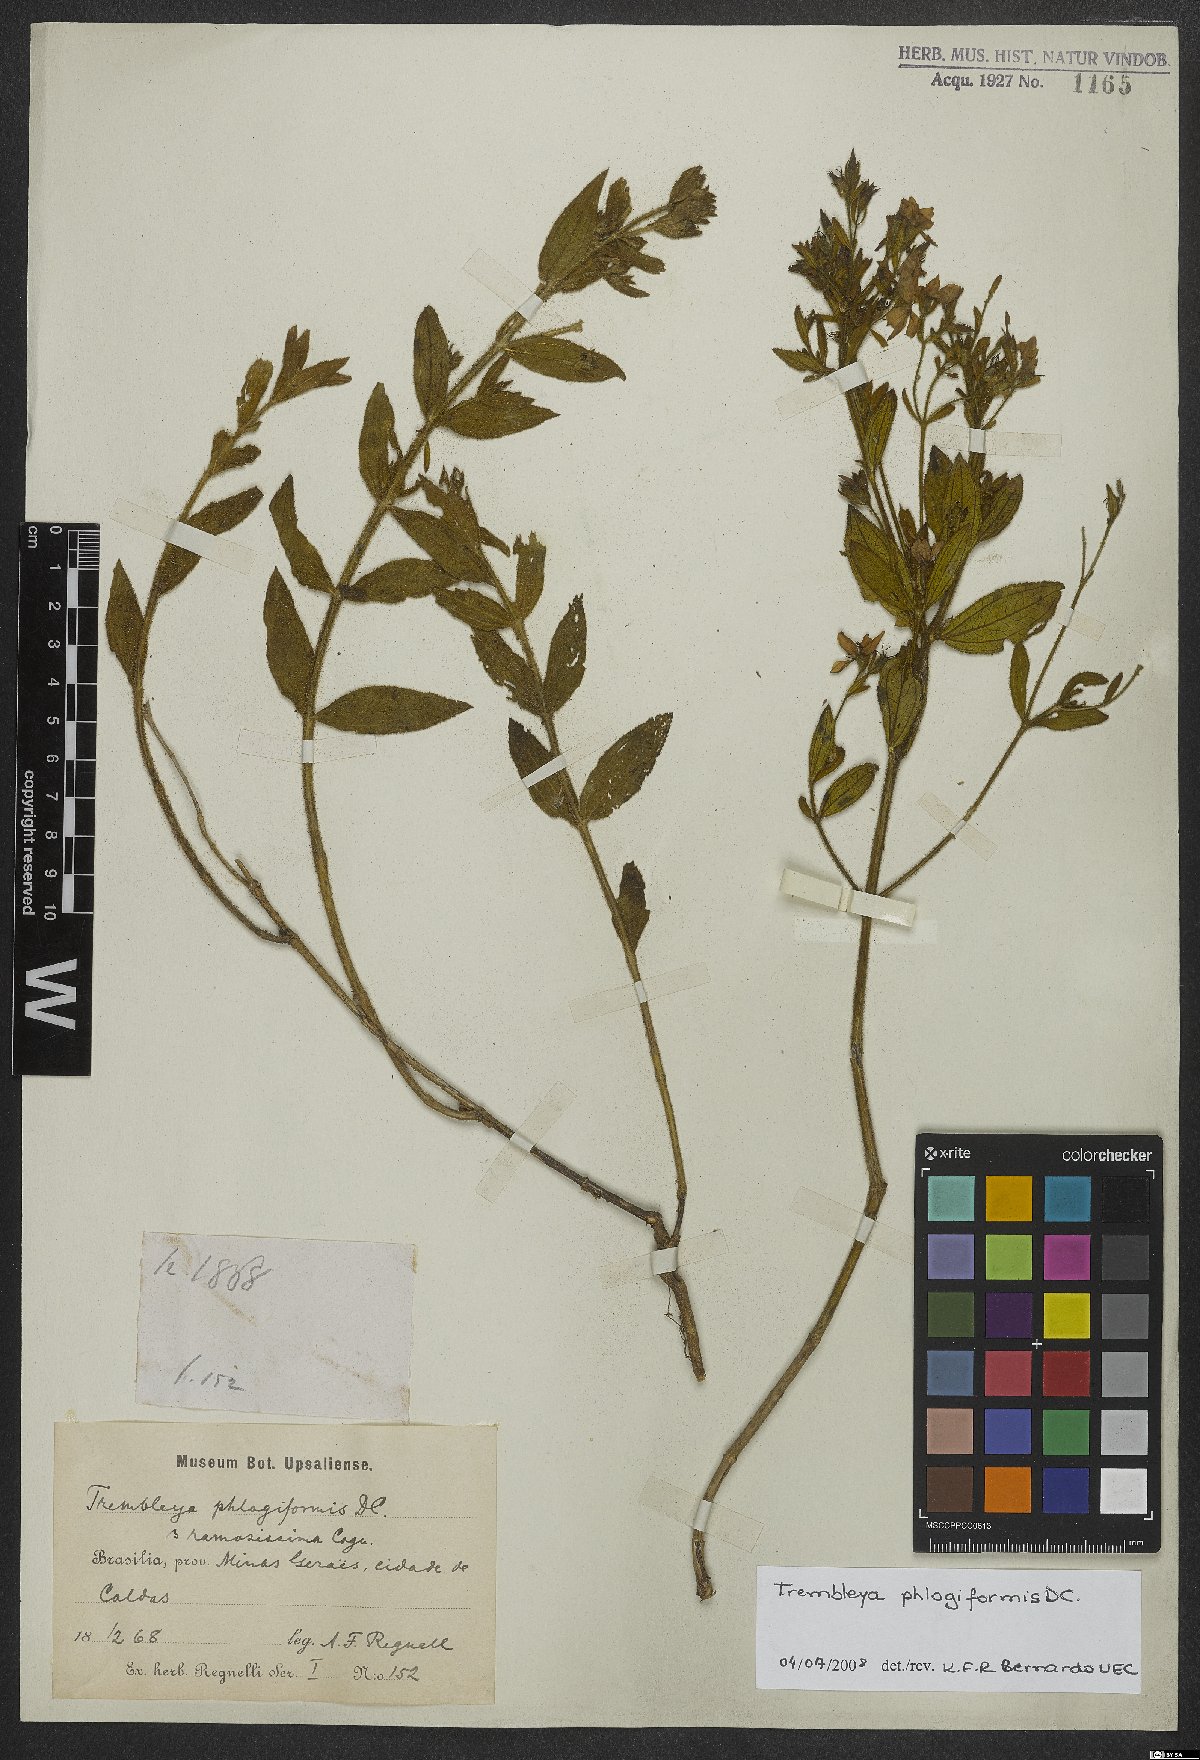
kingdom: Plantae
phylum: Tracheophyta
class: Magnoliopsida
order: Myrtales
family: Melastomataceae
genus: Microlicia
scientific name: Microlicia phlogiformis
